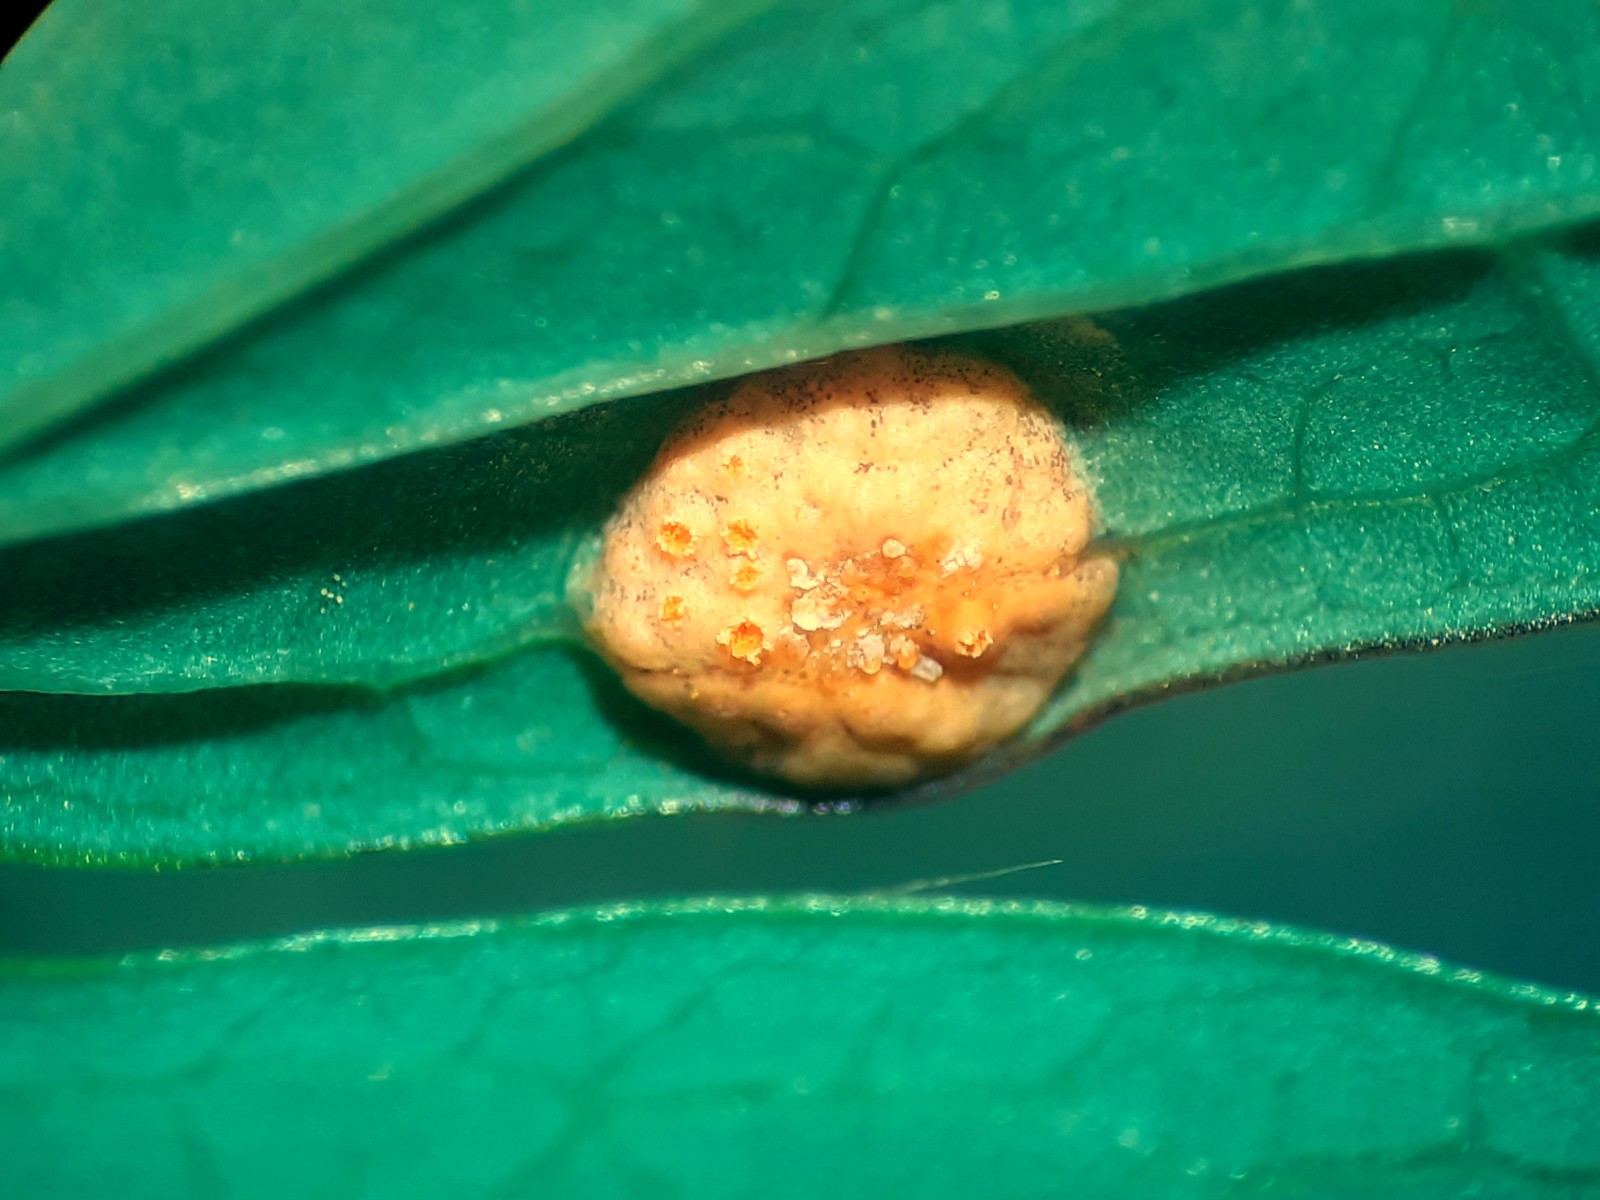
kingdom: Fungi
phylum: Basidiomycota
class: Pucciniomycetes
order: Pucciniales
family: Pucciniaceae
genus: Puccinia
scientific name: Puccinia recondita
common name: Brown rust of wheat
